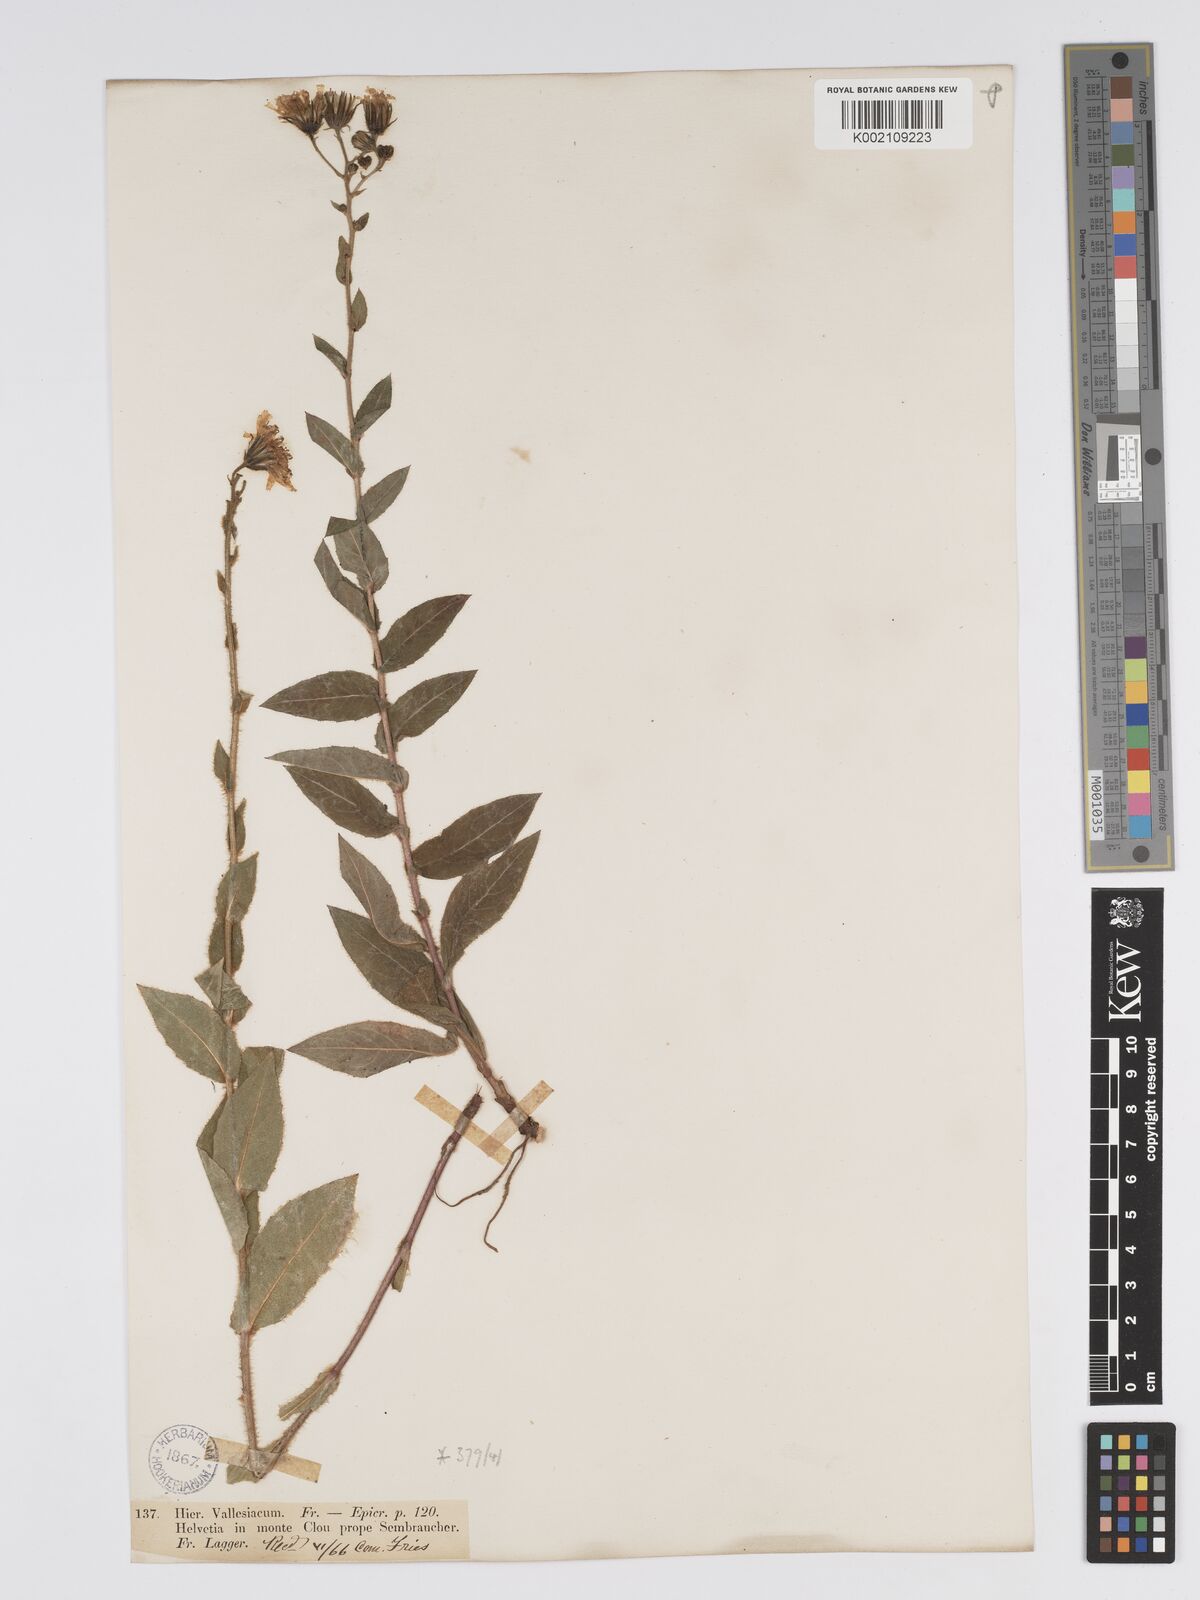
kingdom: Plantae
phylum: Tracheophyta
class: Magnoliopsida
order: Asterales
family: Asteraceae
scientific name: Asteraceae
